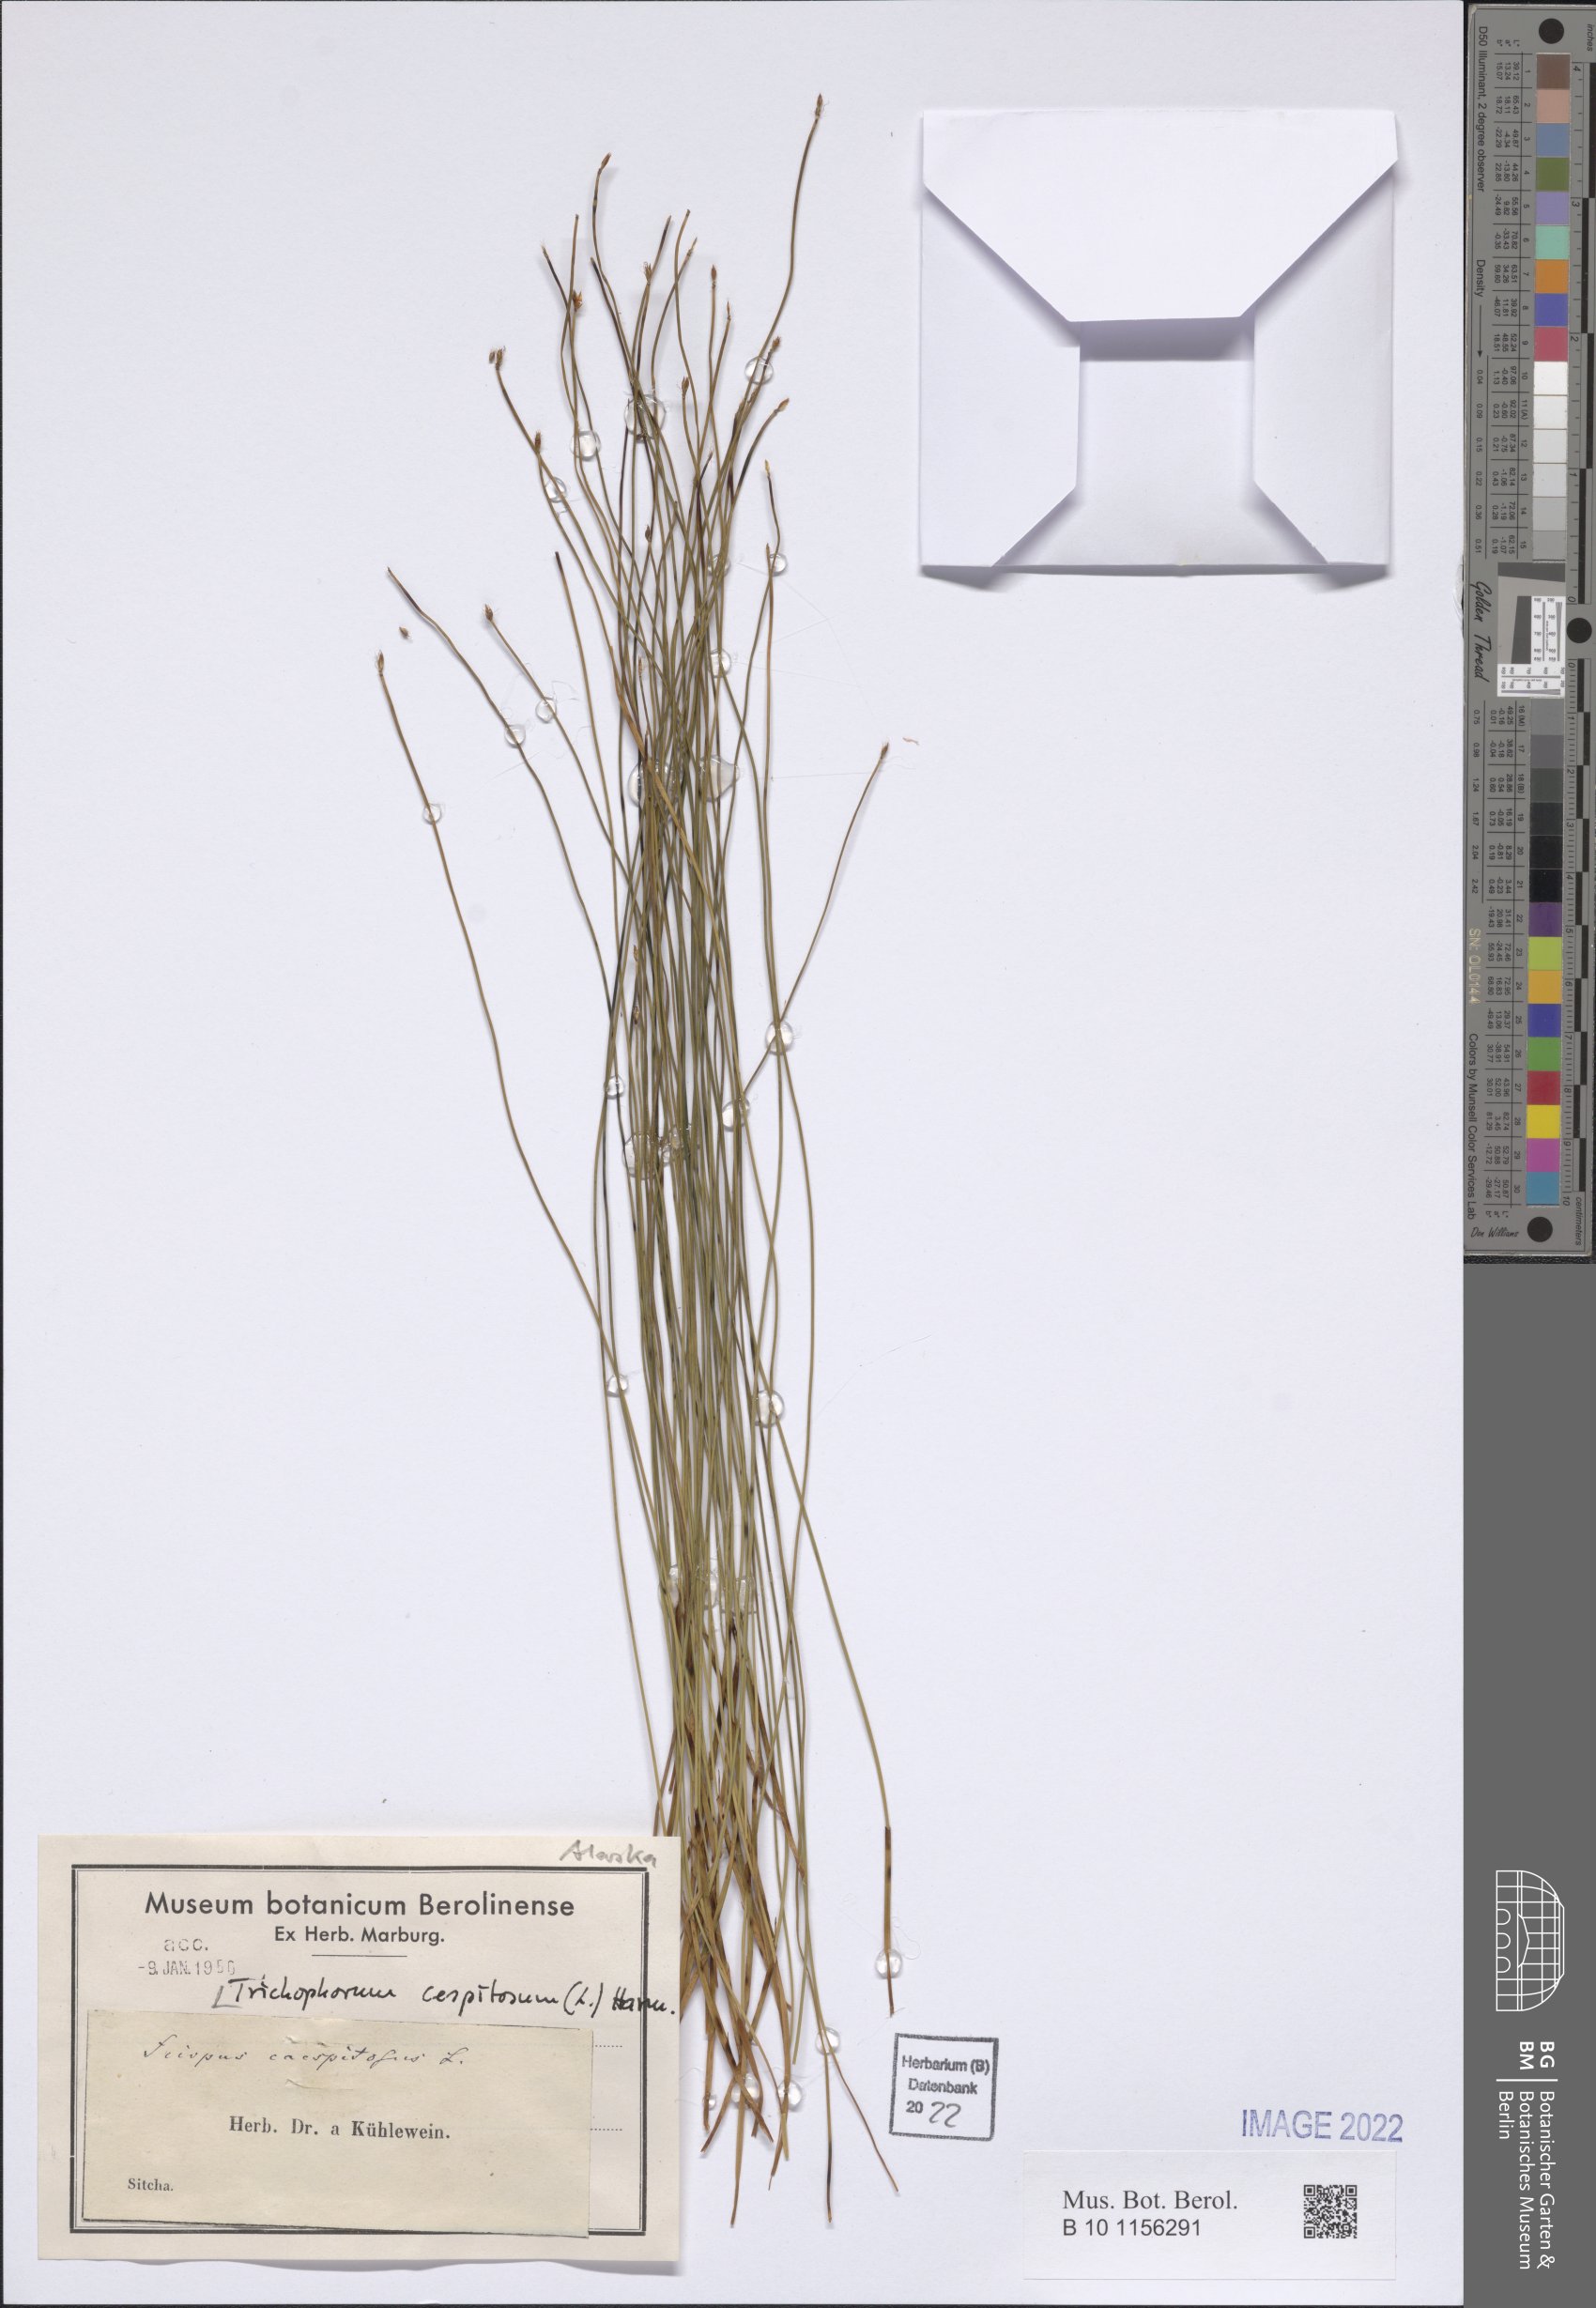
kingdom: Plantae
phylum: Tracheophyta
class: Liliopsida
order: Poales
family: Cyperaceae
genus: Trichophorum
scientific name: Trichophorum cespitosum
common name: Cespitose bulrush
